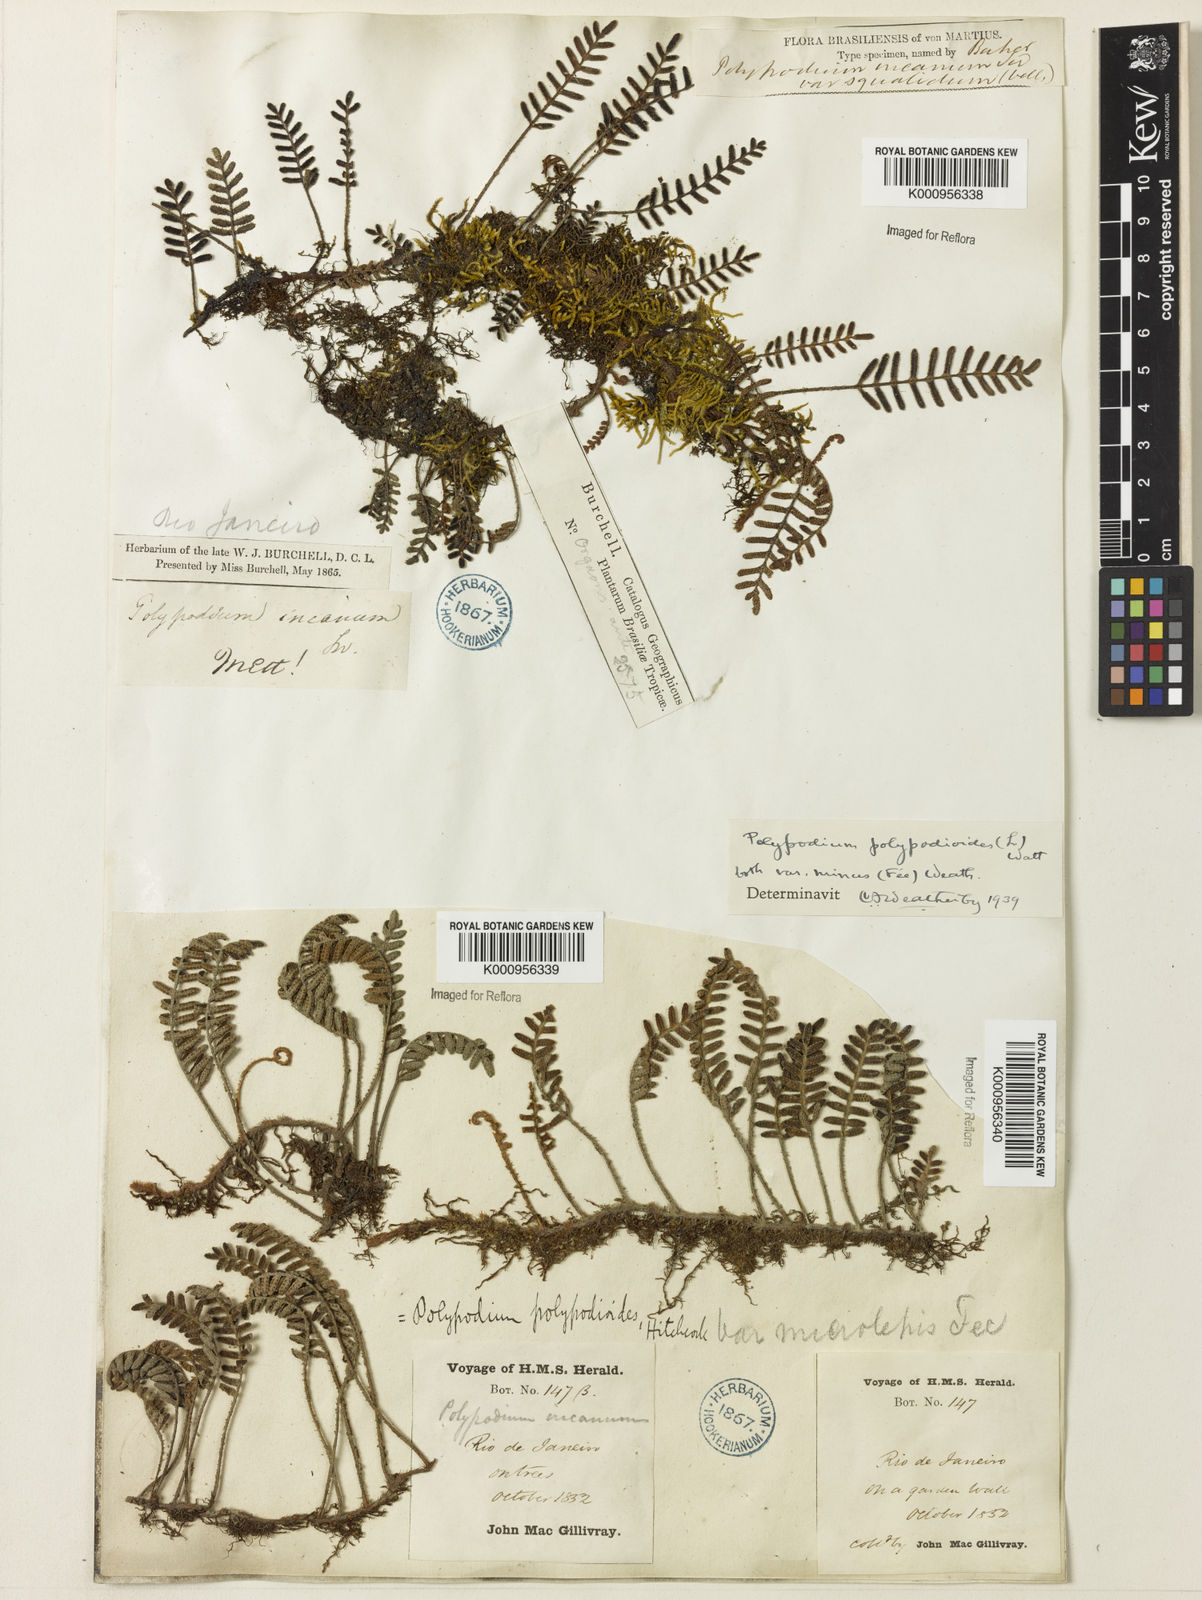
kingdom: Plantae
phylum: Tracheophyta
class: Polypodiopsida
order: Polypodiales
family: Polypodiaceae
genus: Pleopeltis
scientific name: Pleopeltis polypodioides
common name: Resurrection fern
